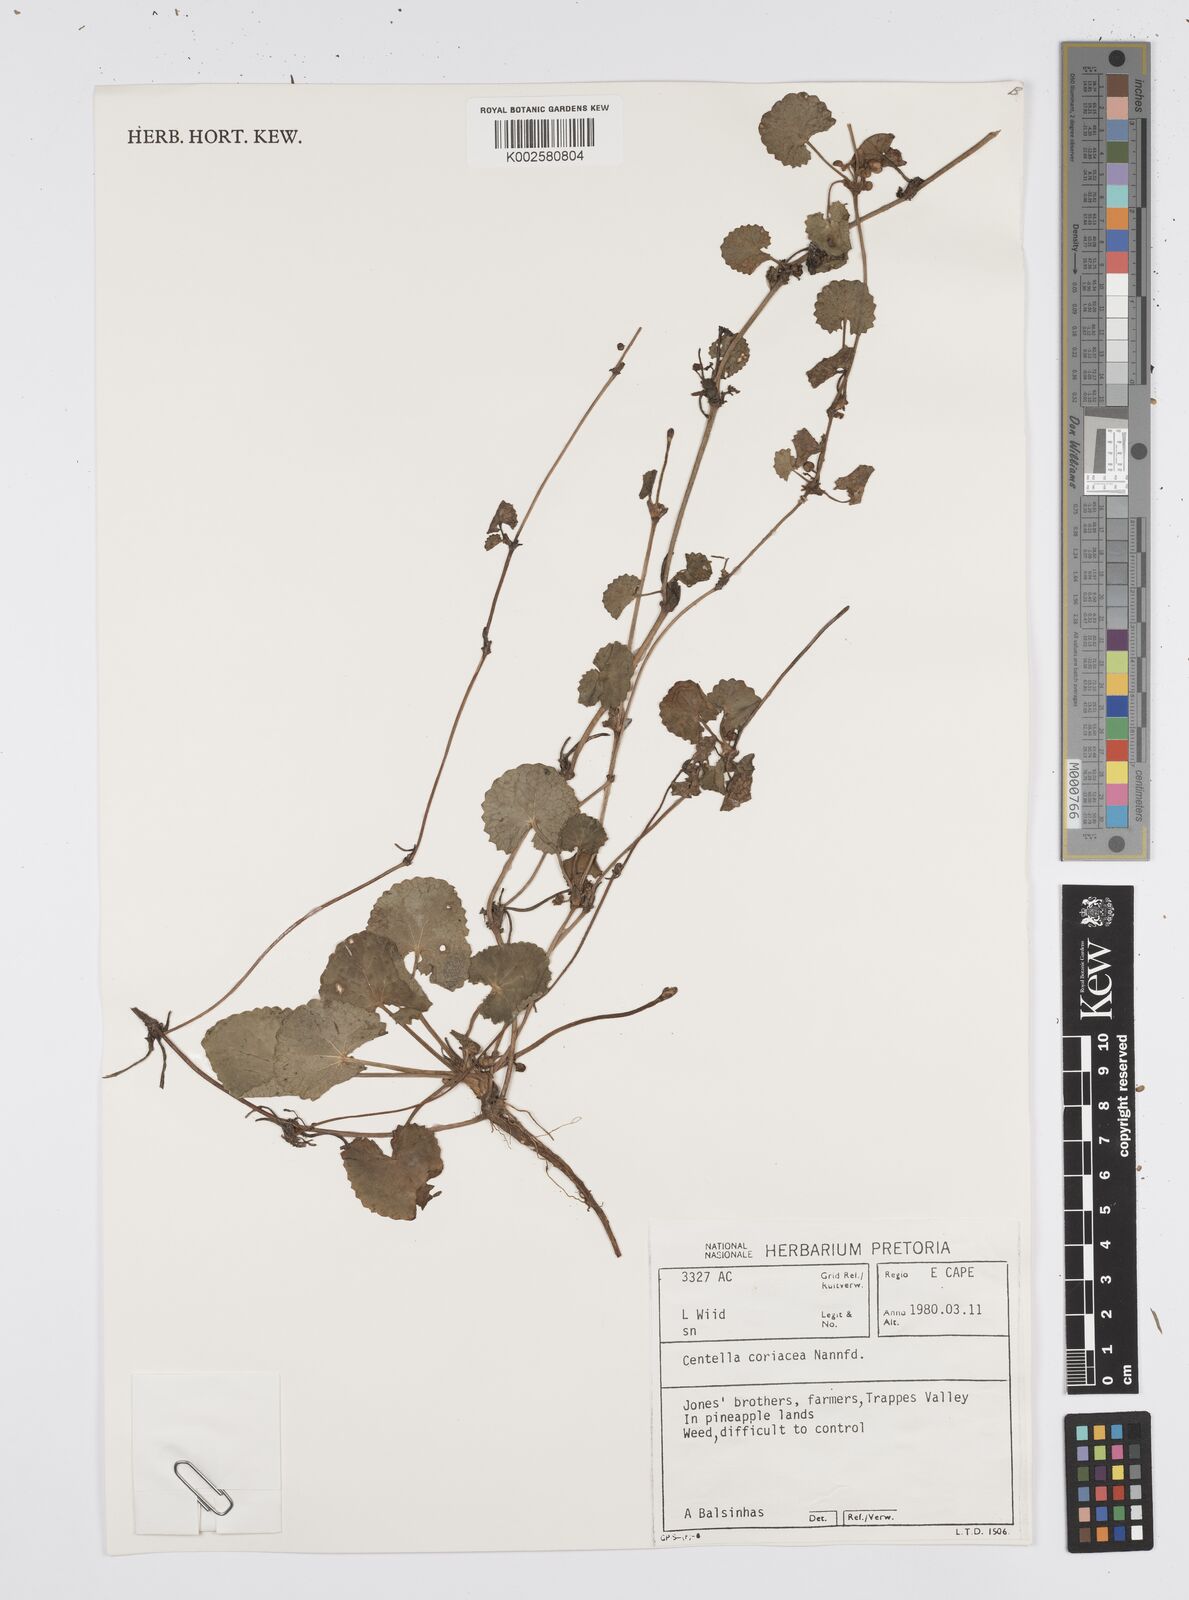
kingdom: Plantae
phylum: Tracheophyta
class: Magnoliopsida
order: Apiales
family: Apiaceae
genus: Centella
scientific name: Centella coriacea
